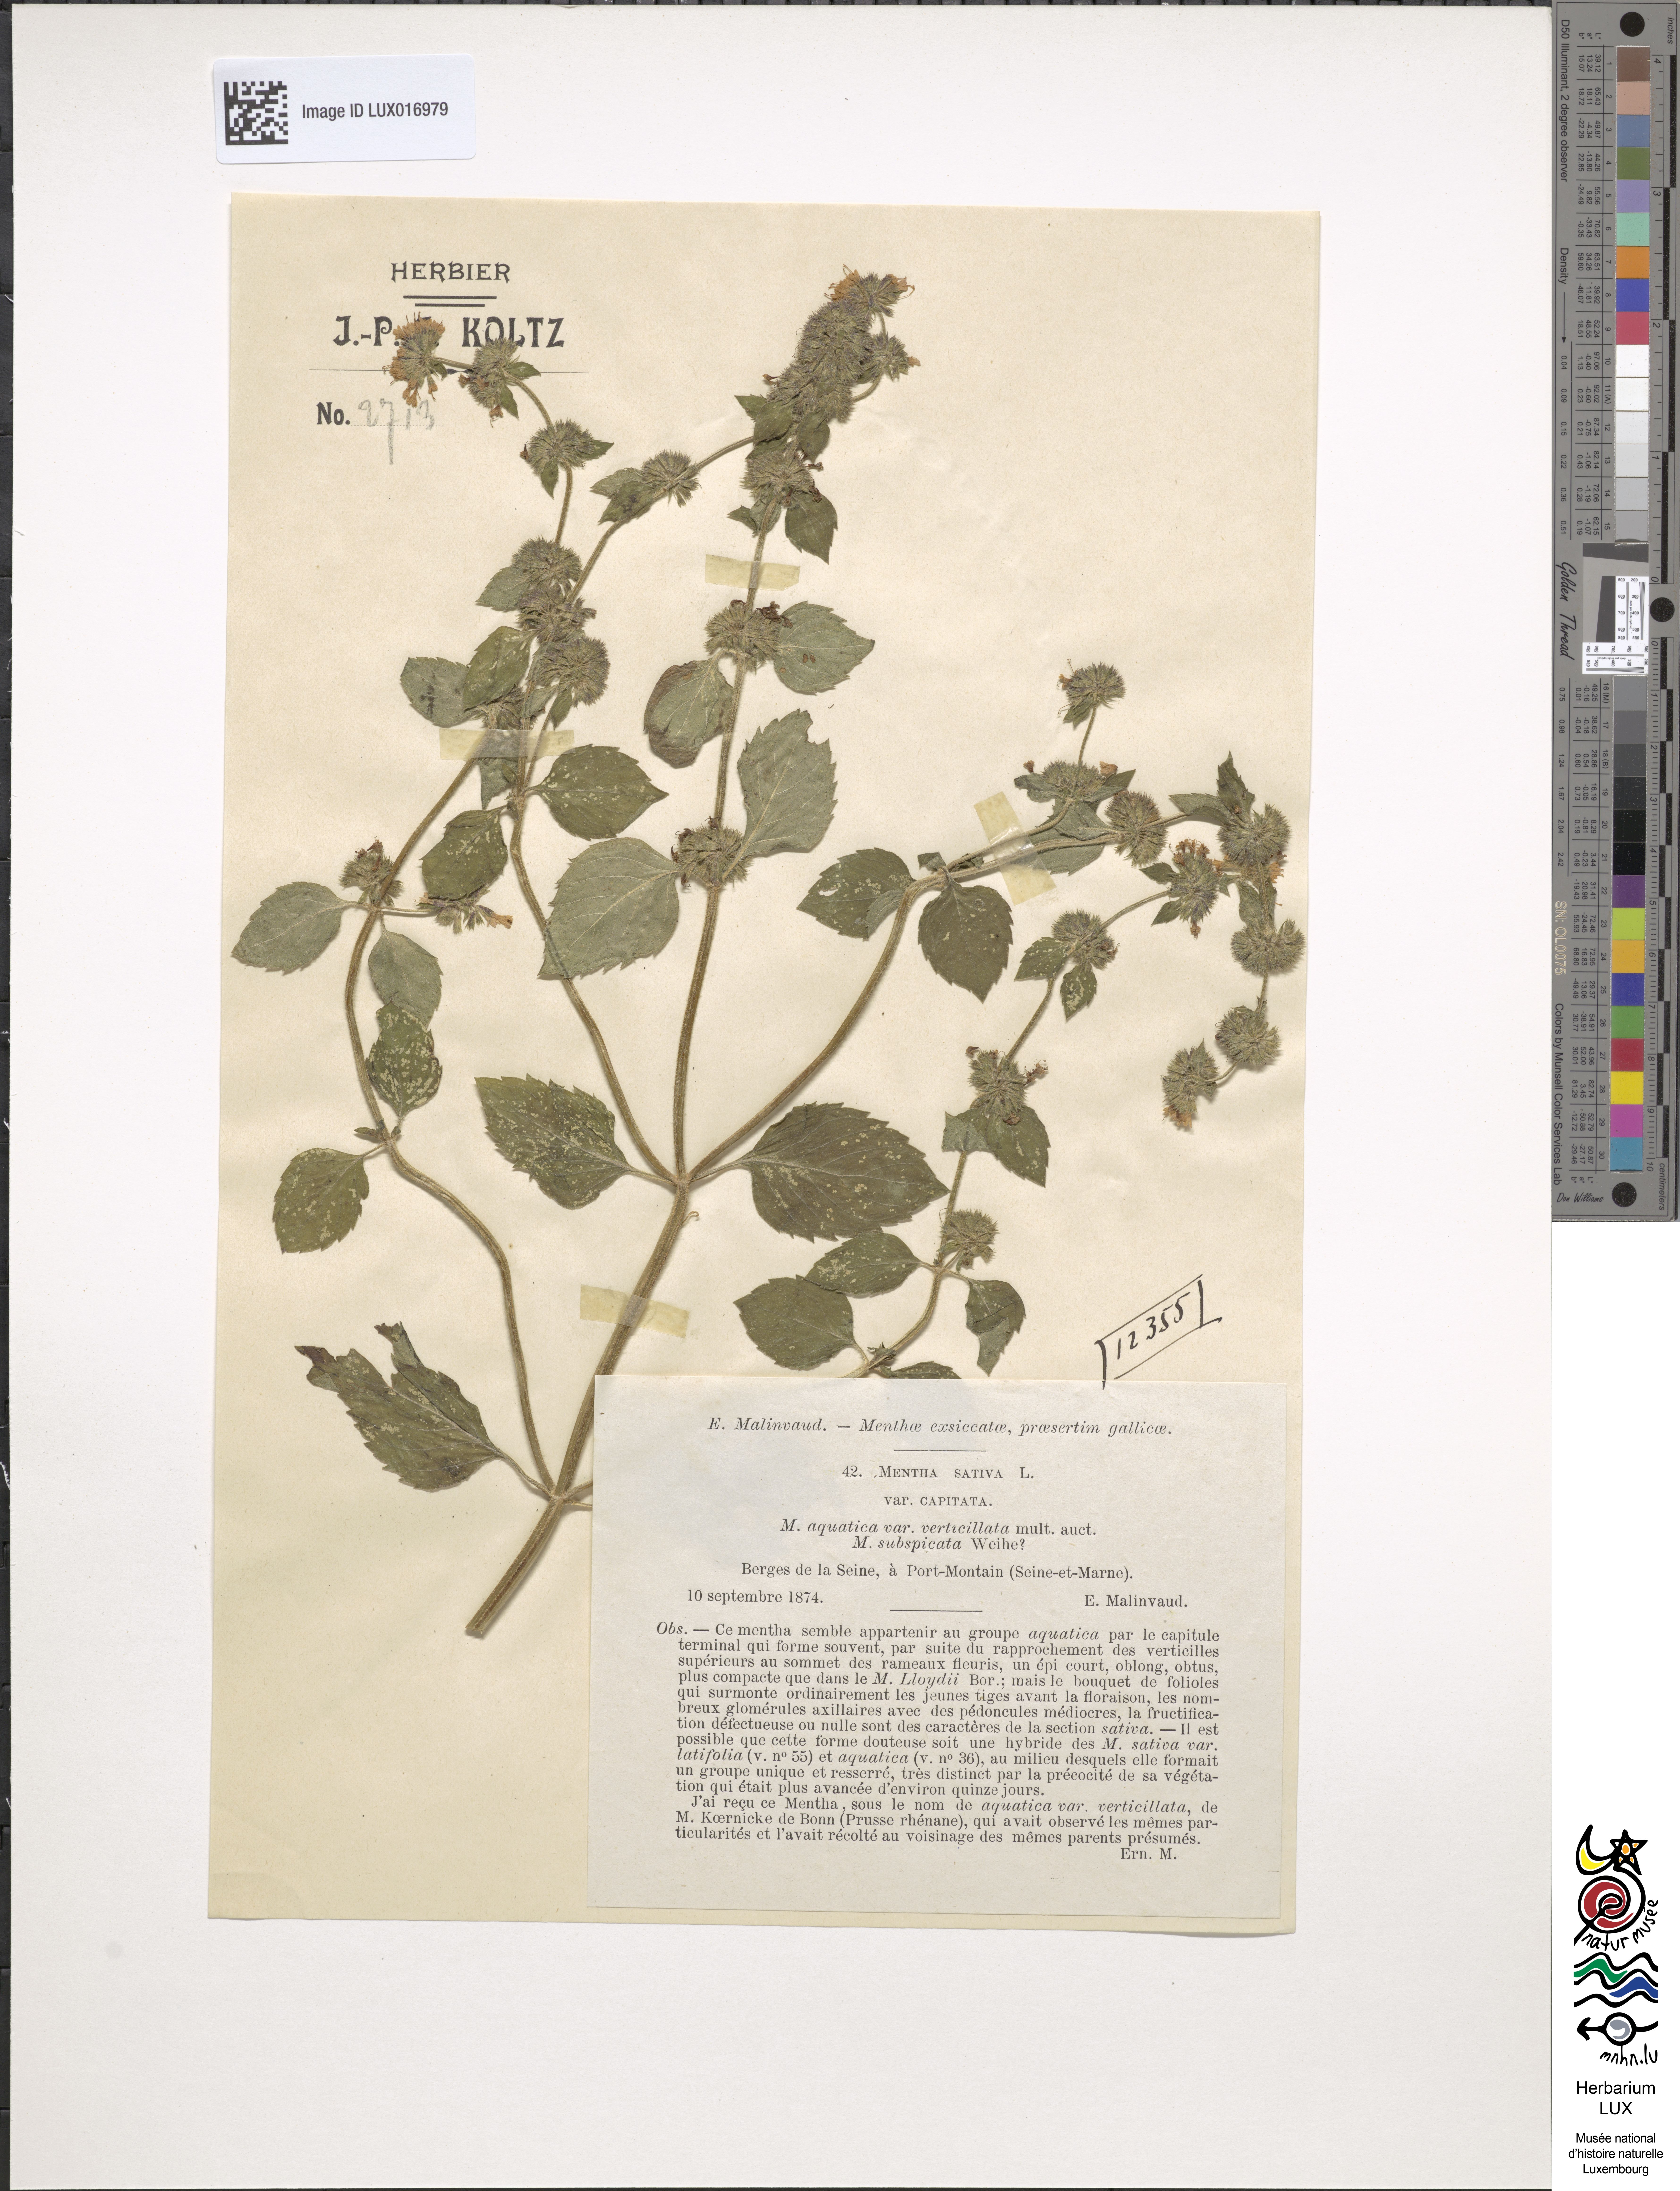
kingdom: Plantae
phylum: Tracheophyta
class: Magnoliopsida
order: Lamiales
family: Lamiaceae
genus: Mentha
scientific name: Mentha verticillata
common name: Mint
